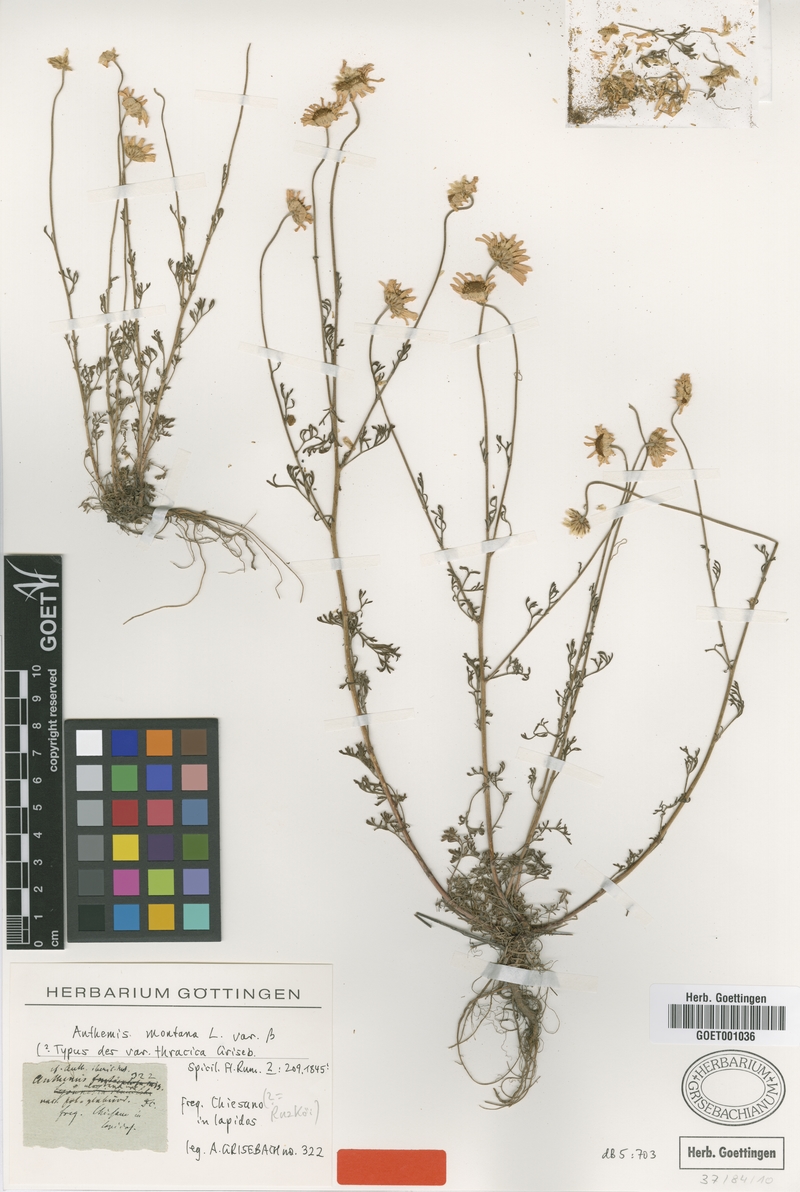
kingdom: Plantae
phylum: Tracheophyta
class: Magnoliopsida
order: Asterales
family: Asteraceae
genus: Anthemis
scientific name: Anthemis macedonica
